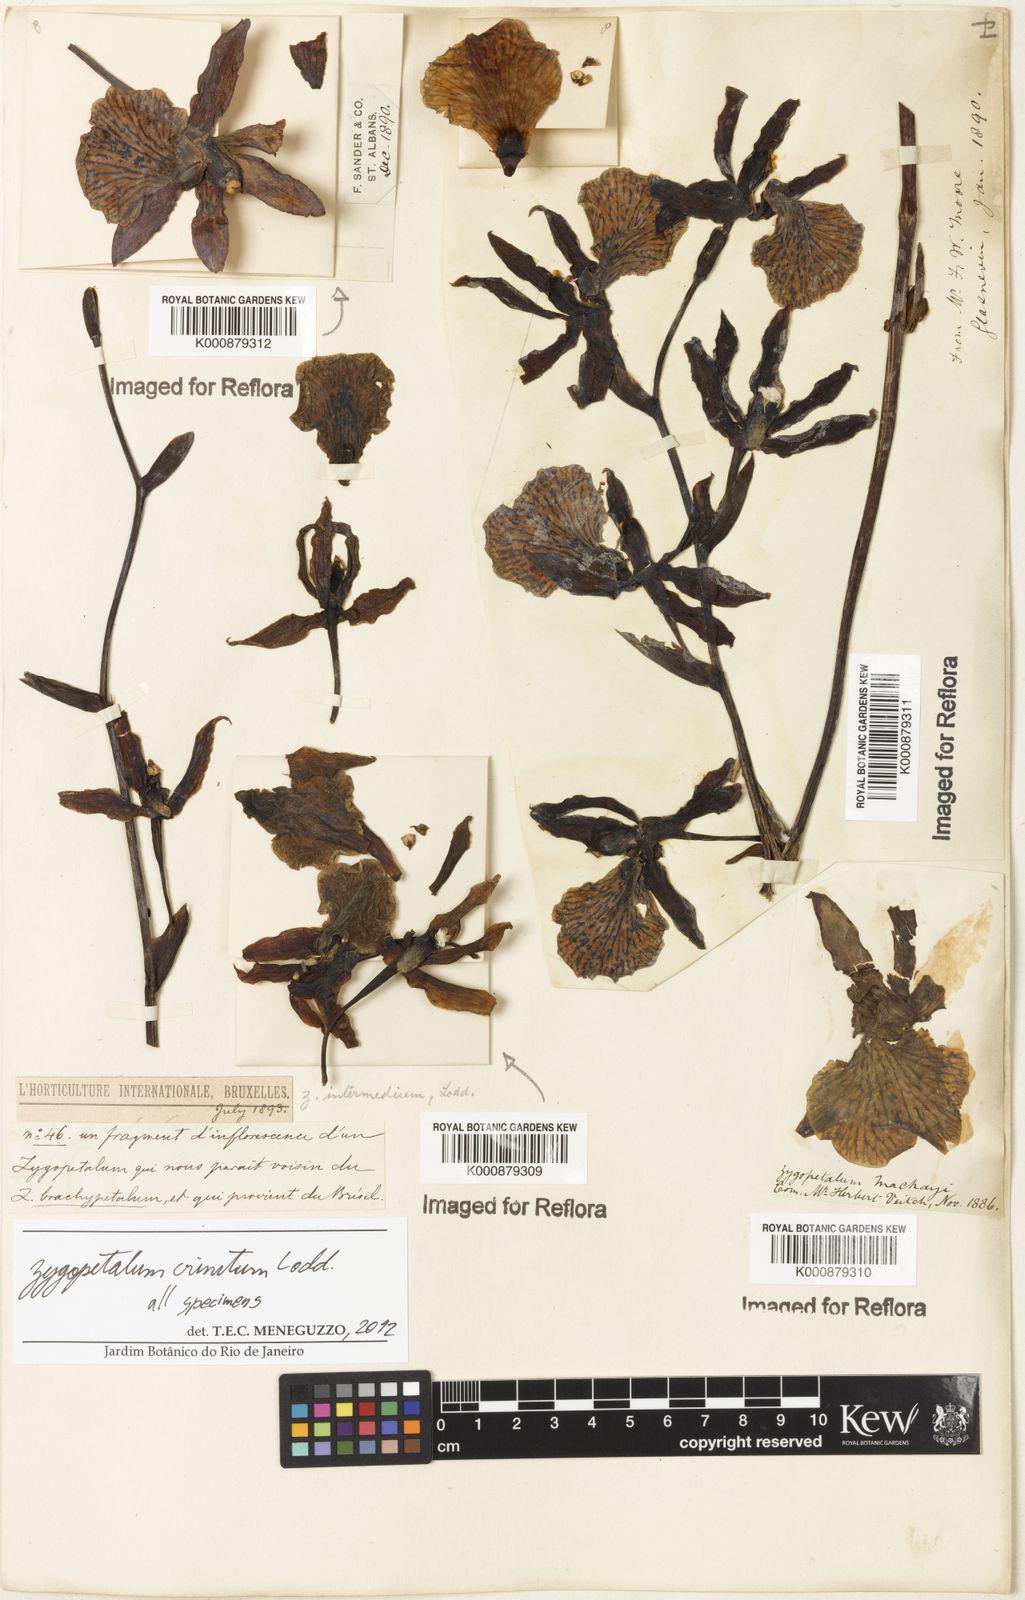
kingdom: Plantae
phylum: Tracheophyta
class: Liliopsida
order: Asparagales
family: Orchidaceae
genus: Zygopetalum
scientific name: Zygopetalum crinitum
